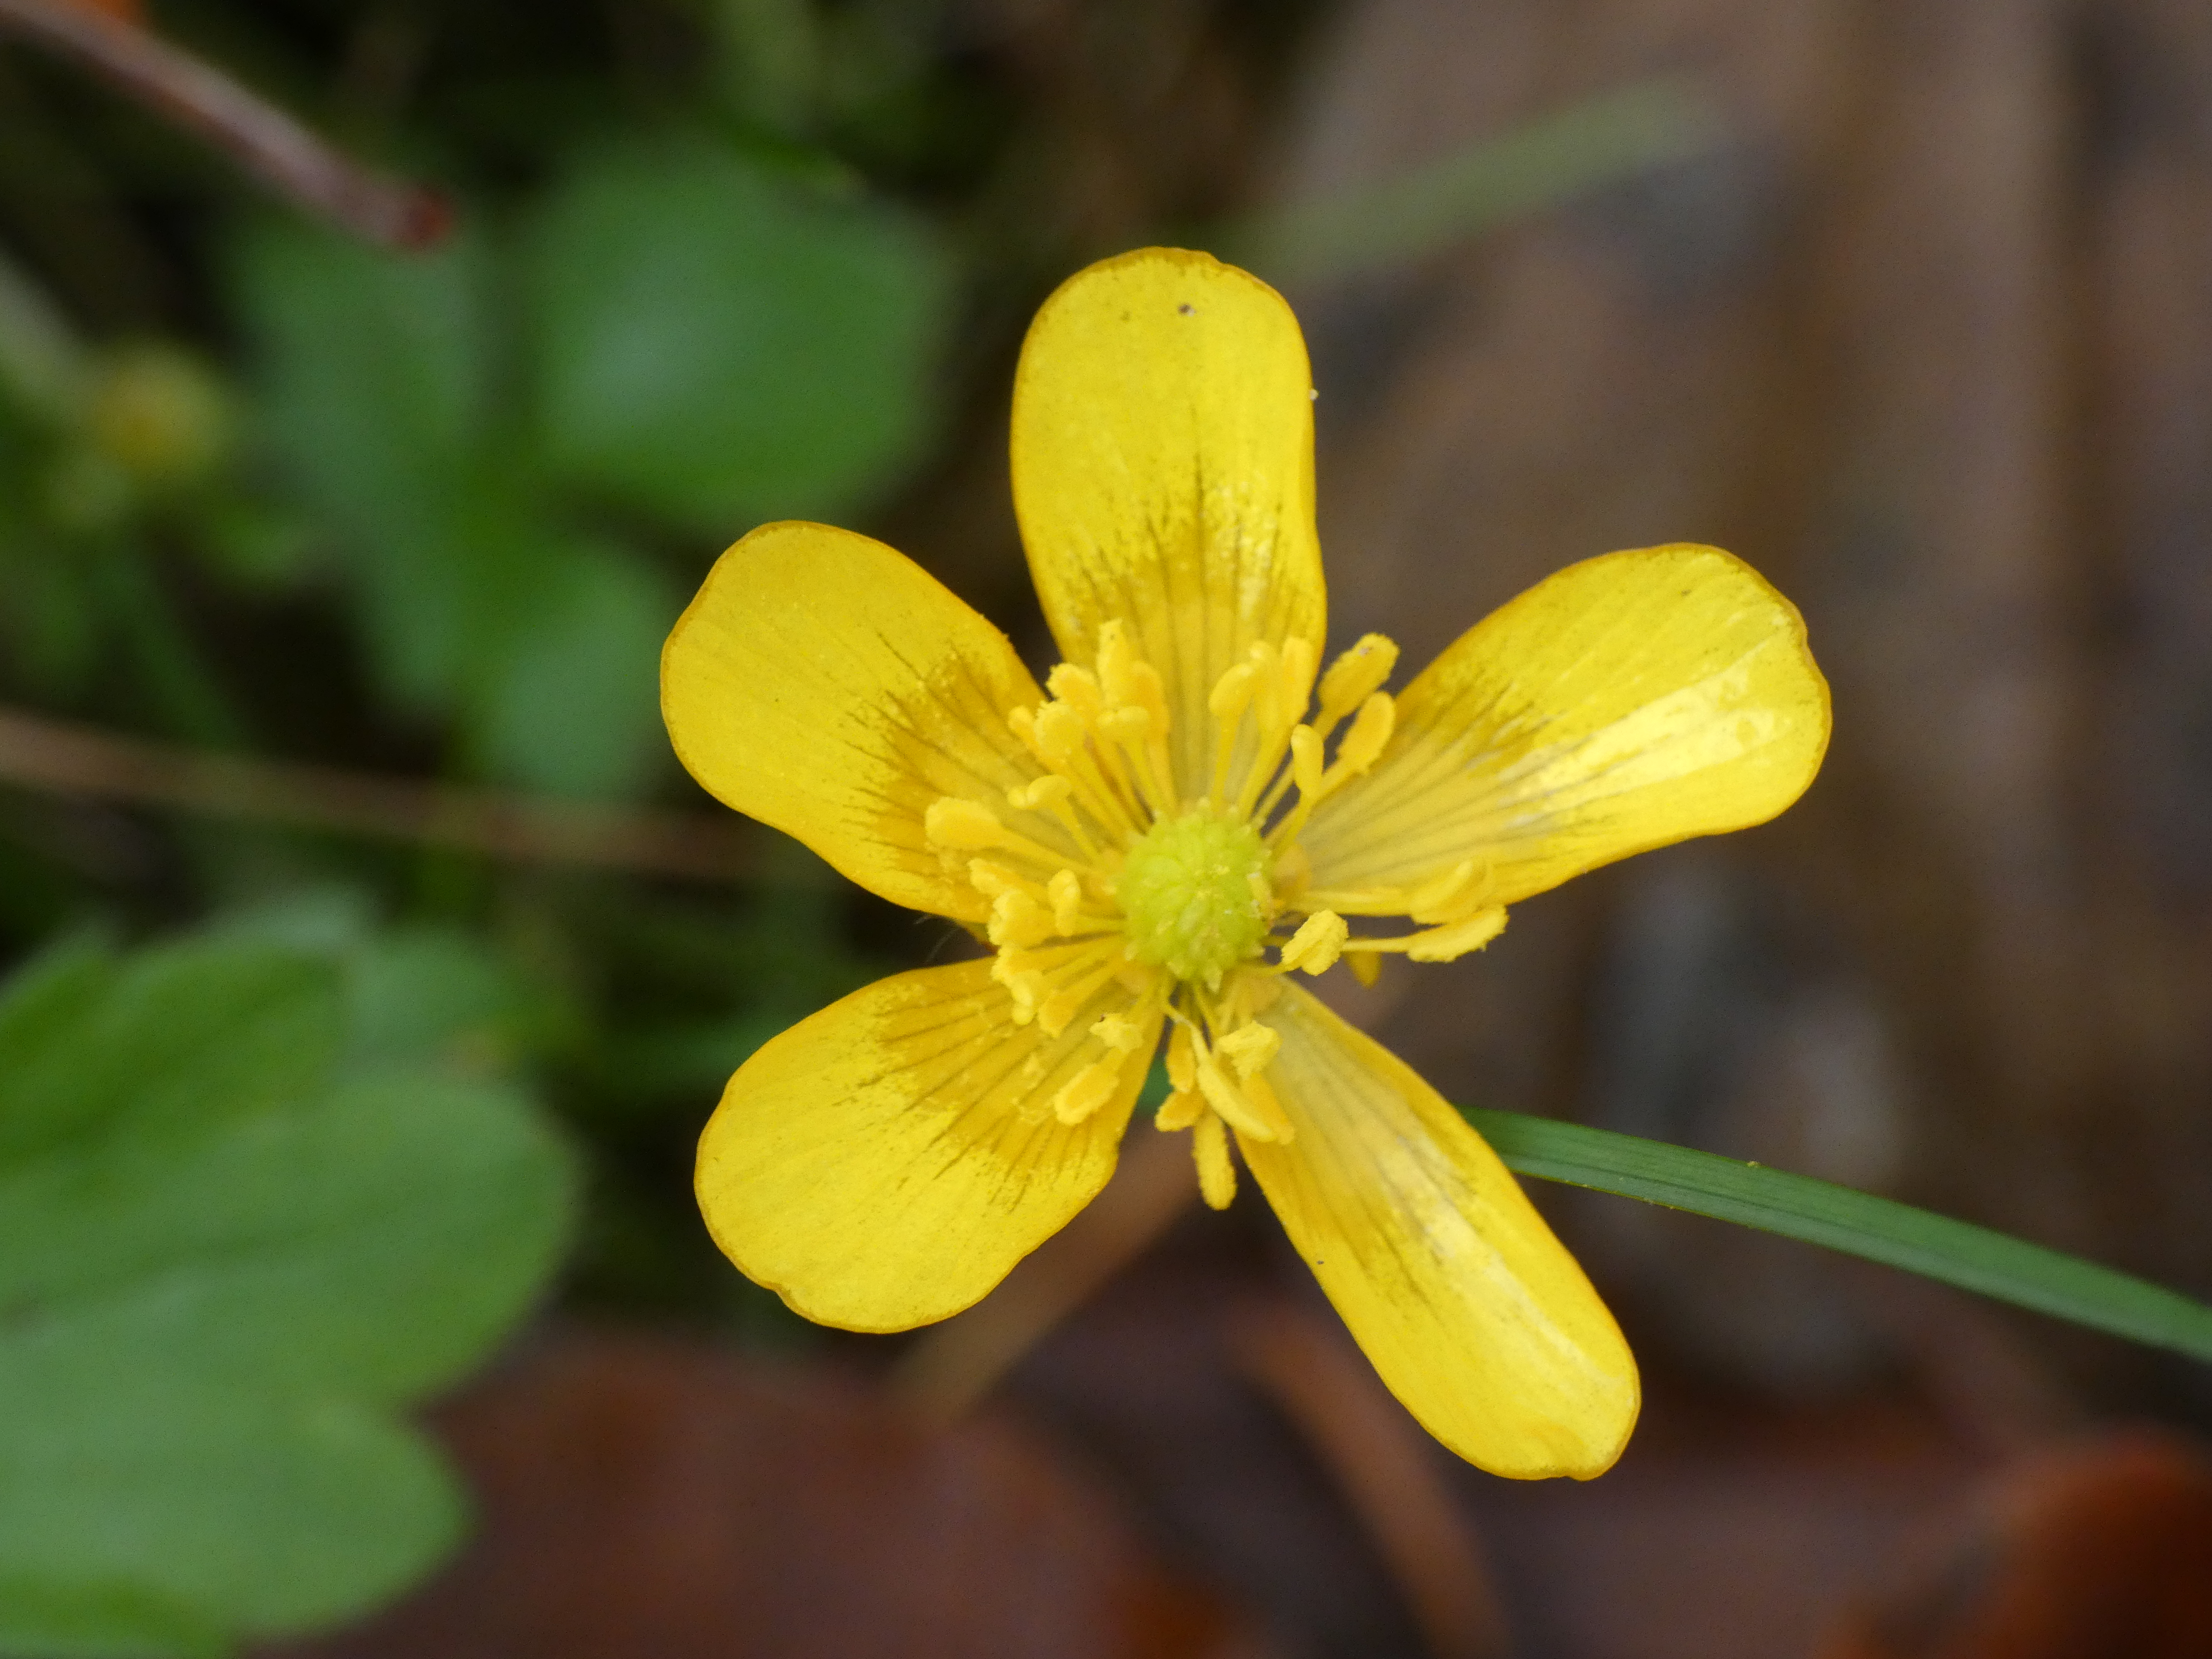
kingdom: Plantae
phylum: Tracheophyta
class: Magnoliopsida
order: Ranunculales
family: Ranunculaceae
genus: Ranunculus
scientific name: Ranunculus repens
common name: Lav ranunkel
